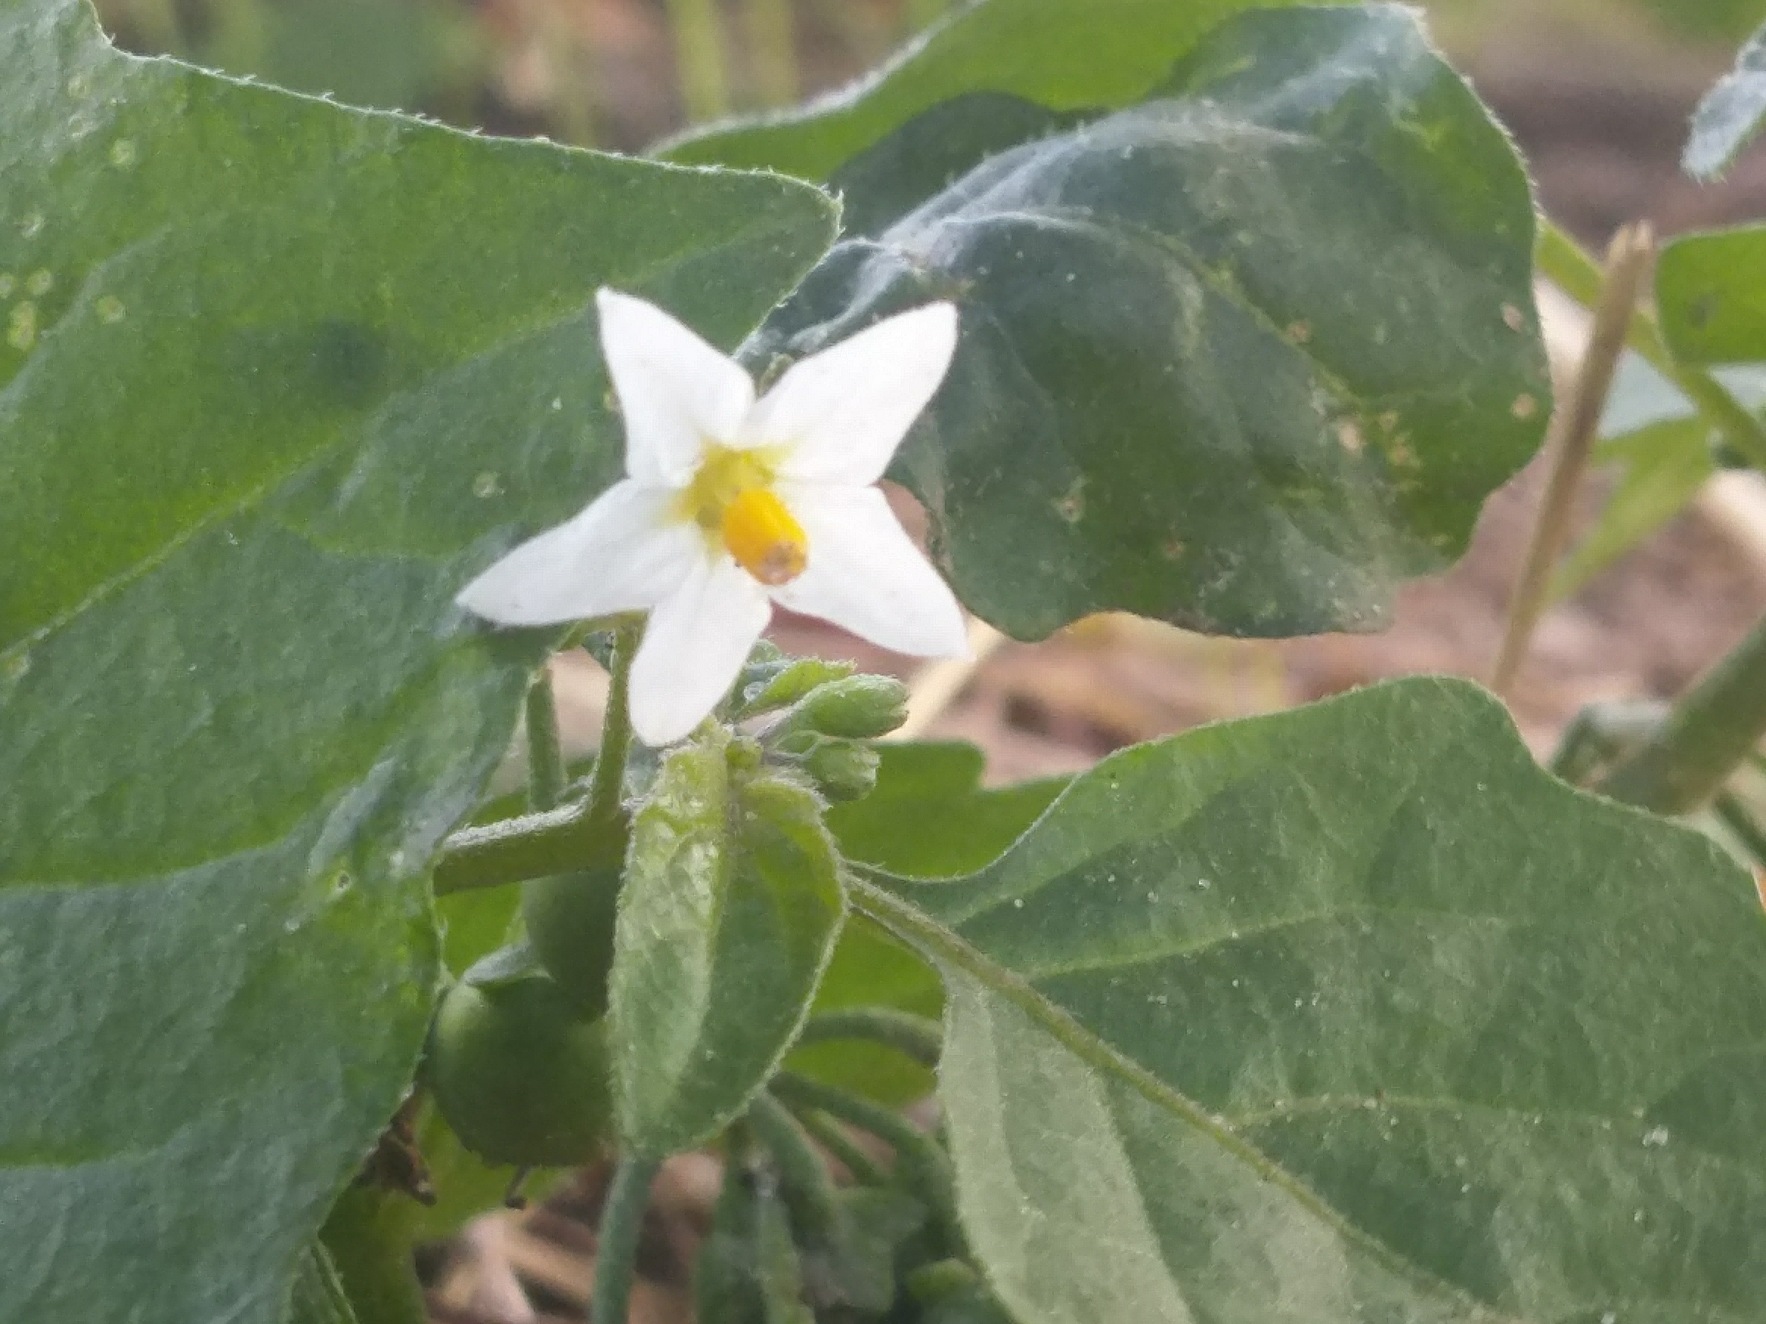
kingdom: Plantae
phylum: Tracheophyta
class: Magnoliopsida
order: Solanales
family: Solanaceae
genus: Solanum
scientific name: Solanum nigrum
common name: Sort natskygge
